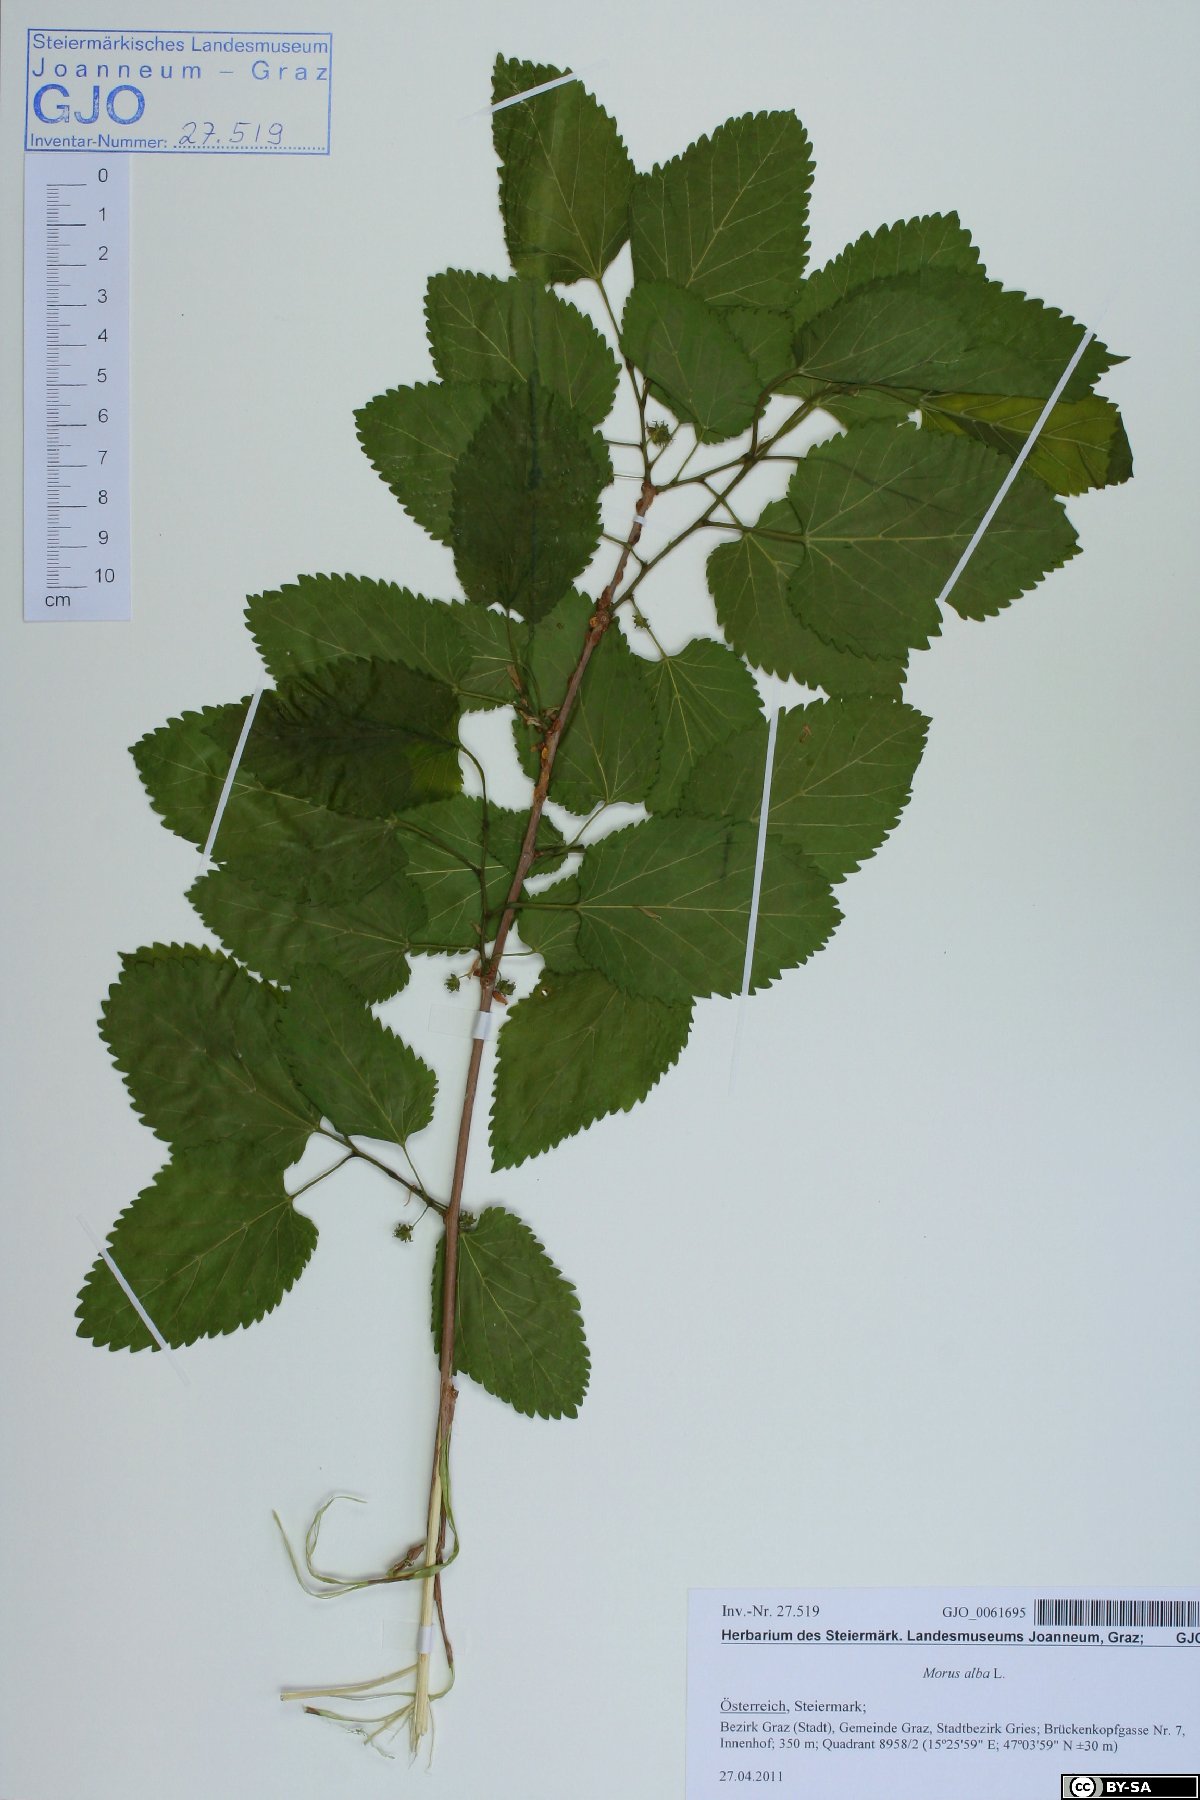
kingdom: Plantae
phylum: Tracheophyta
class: Magnoliopsida
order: Rosales
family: Moraceae
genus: Morus
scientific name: Morus alba
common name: White mulberry
